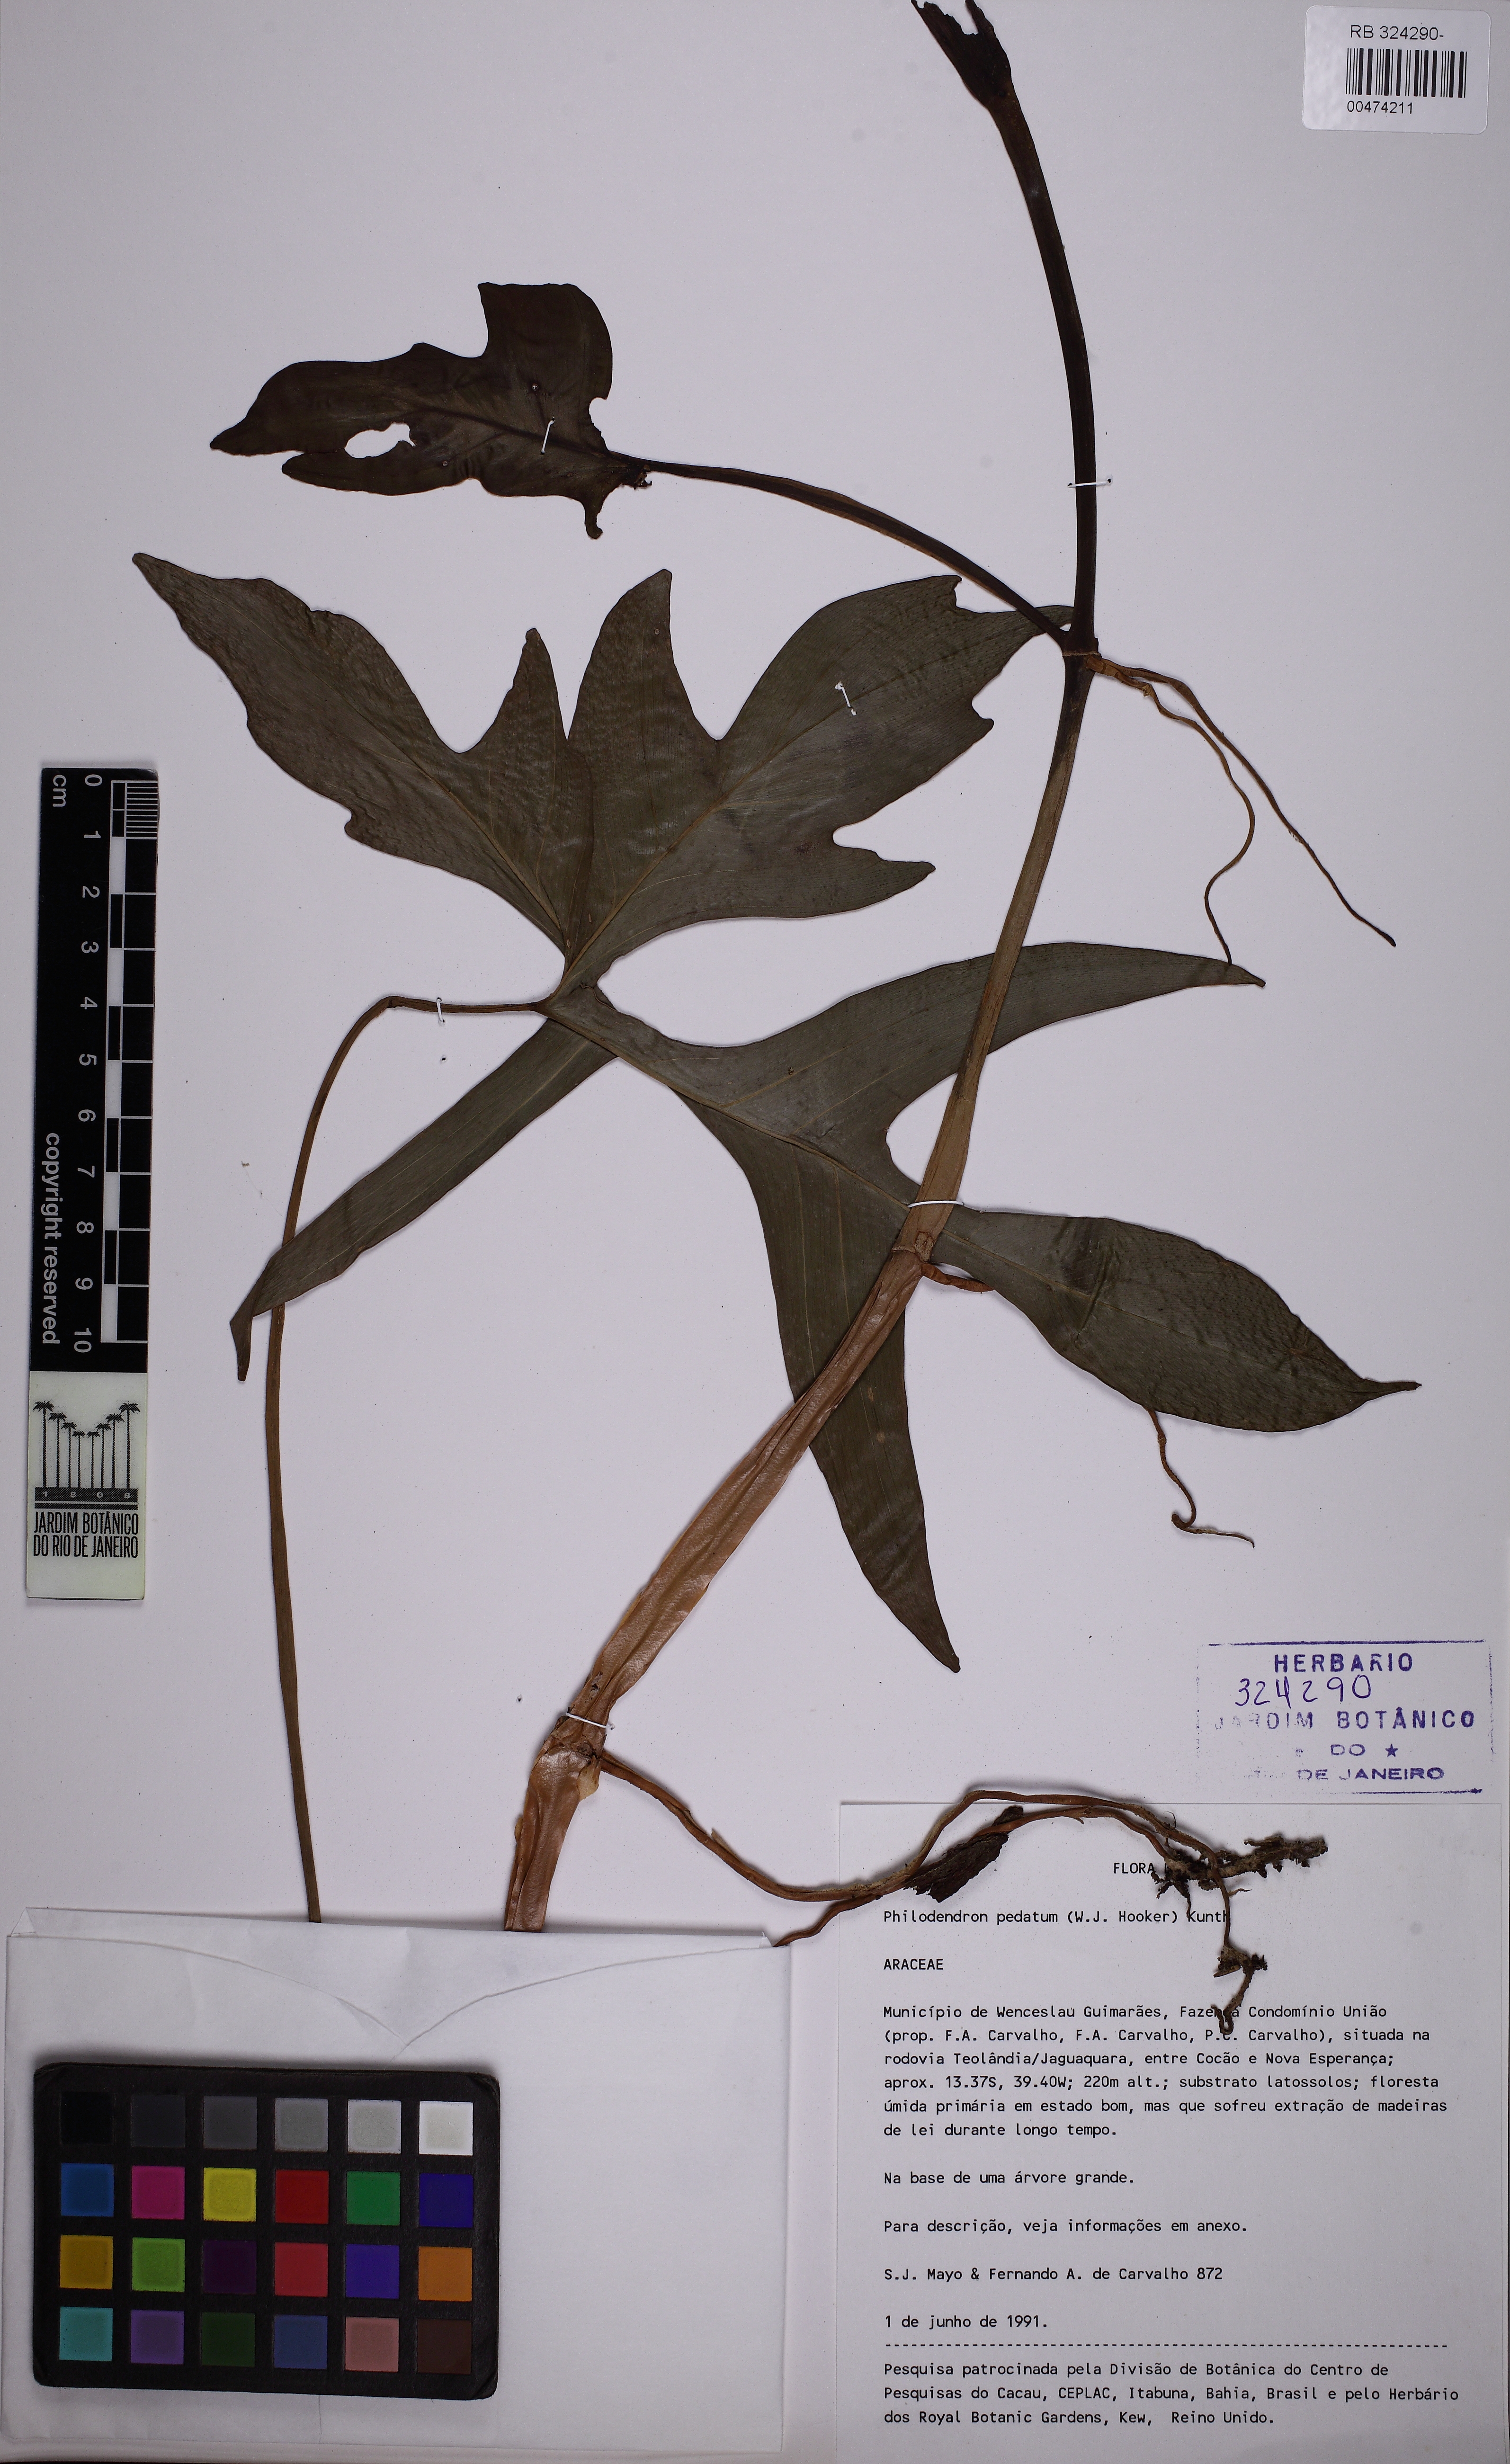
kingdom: Plantae
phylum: Tracheophyta
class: Liliopsida
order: Alismatales
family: Araceae
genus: Philodendron
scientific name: Philodendron pedatum
